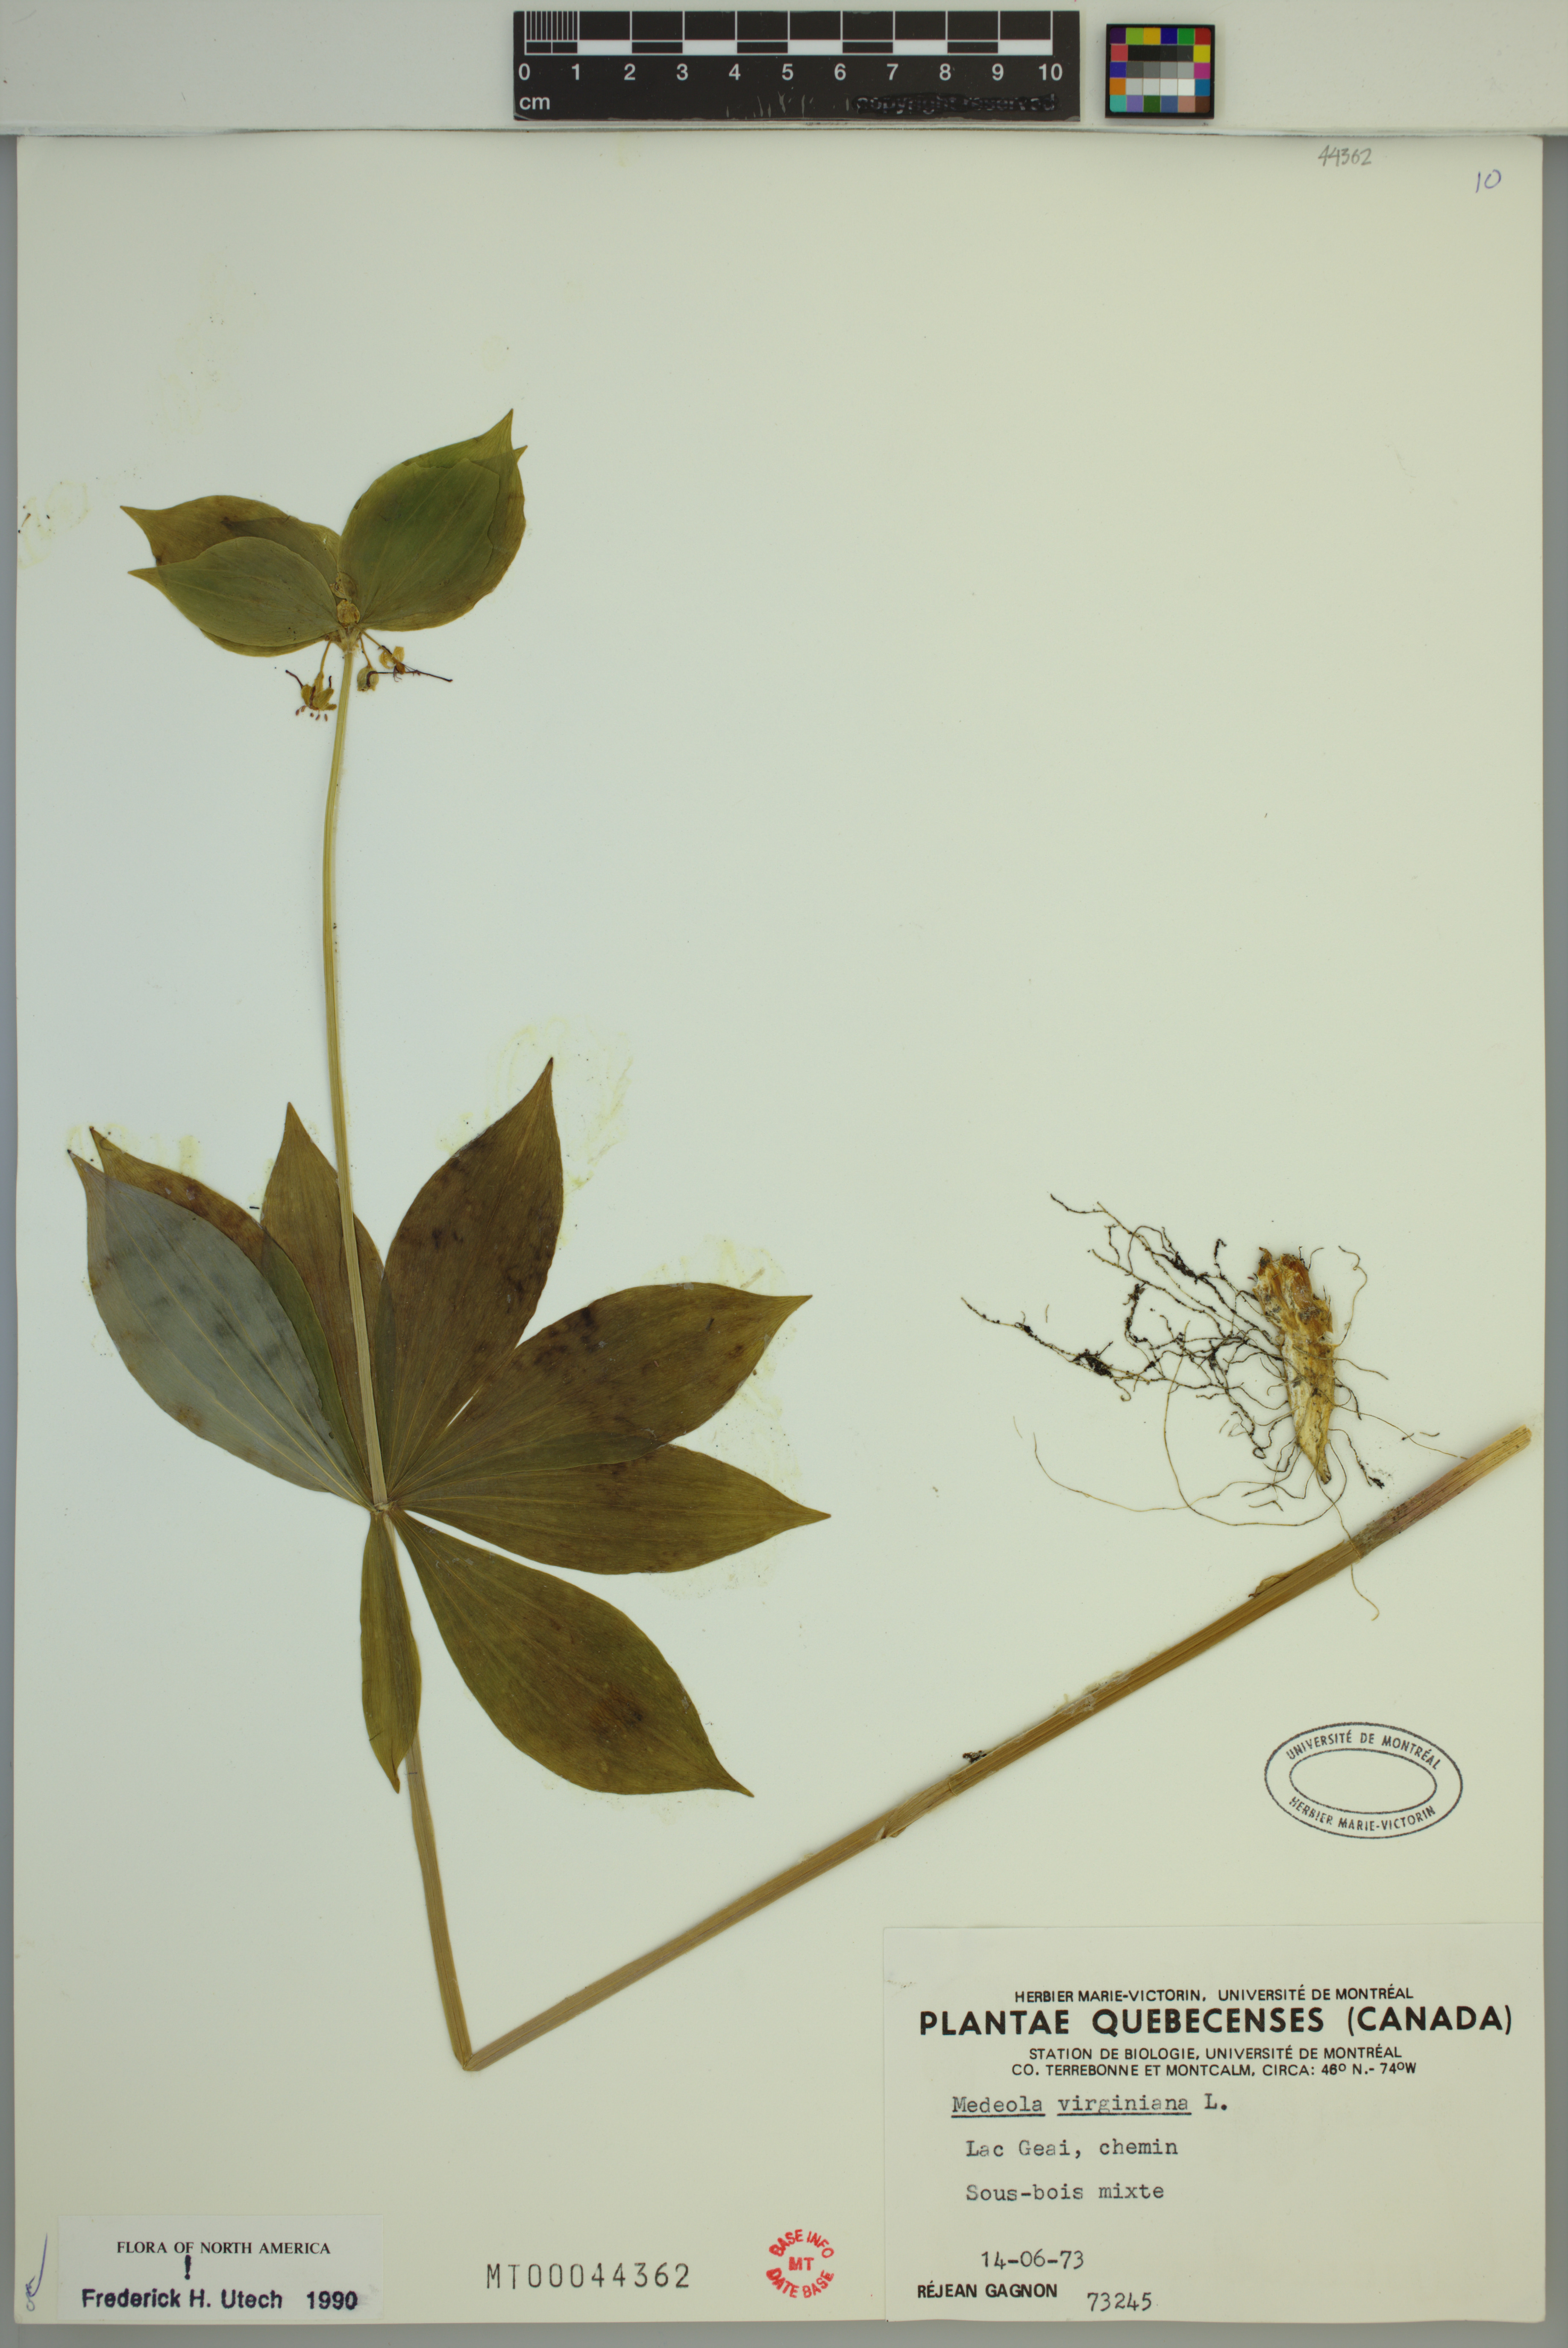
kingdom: Plantae
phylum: Tracheophyta
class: Liliopsida
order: Liliales
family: Liliaceae
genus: Medeola
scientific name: Medeola virginiana
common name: Indian cucumber-root
